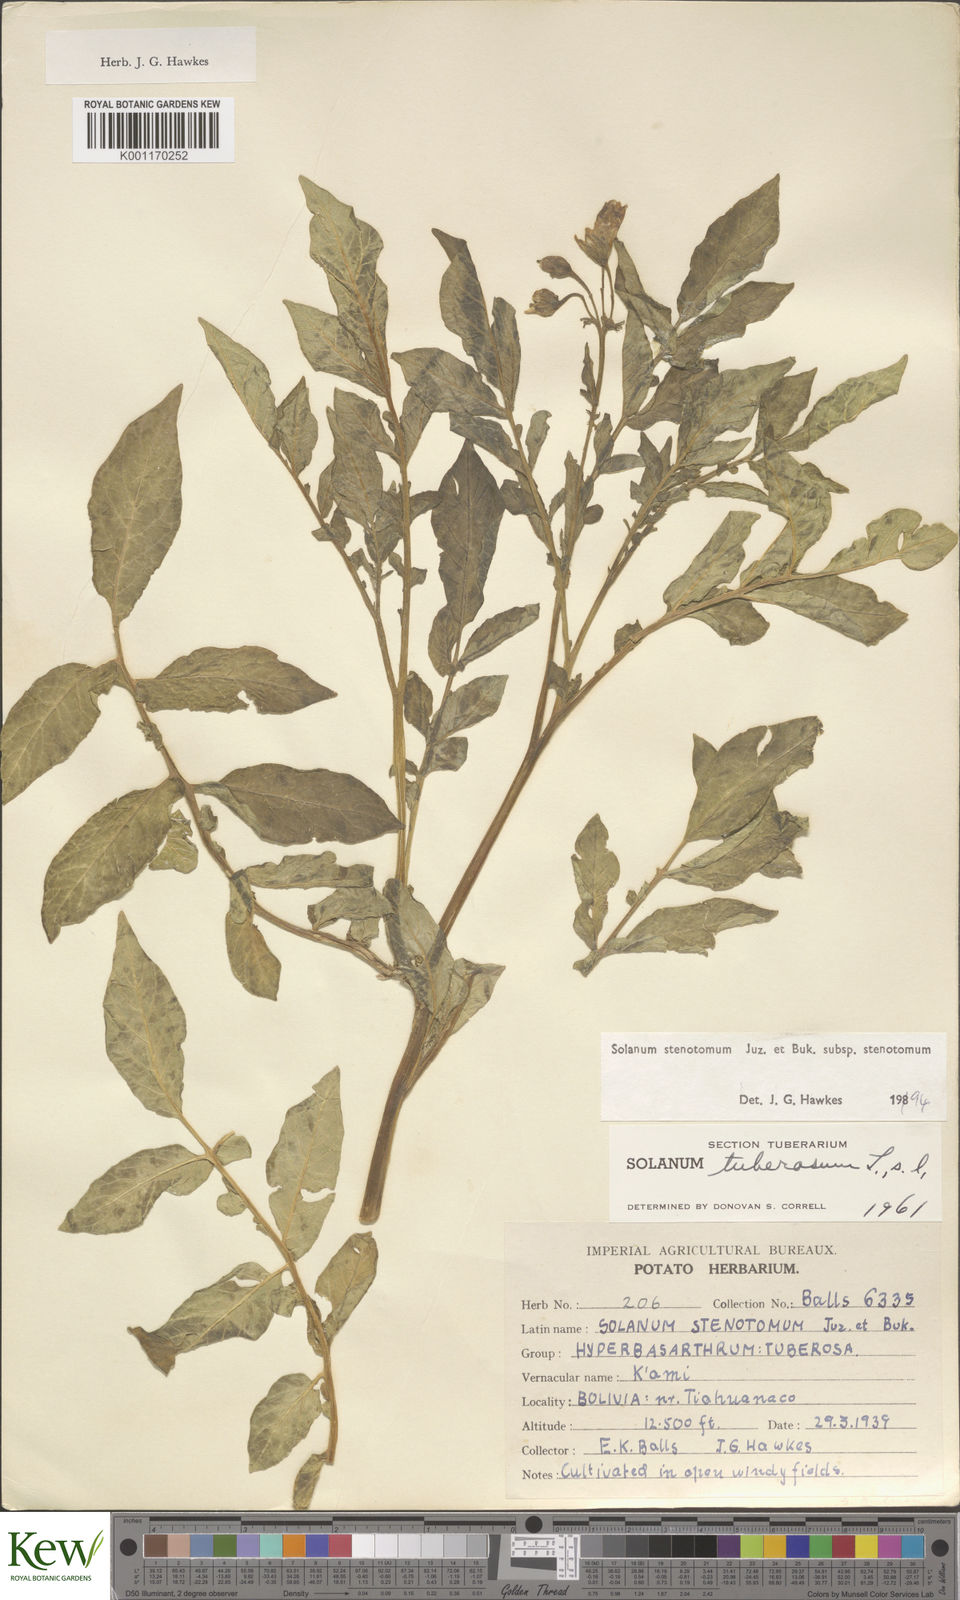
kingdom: Plantae
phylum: Tracheophyta
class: Magnoliopsida
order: Solanales
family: Solanaceae
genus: Solanum
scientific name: Solanum tuberosum
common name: Potato
